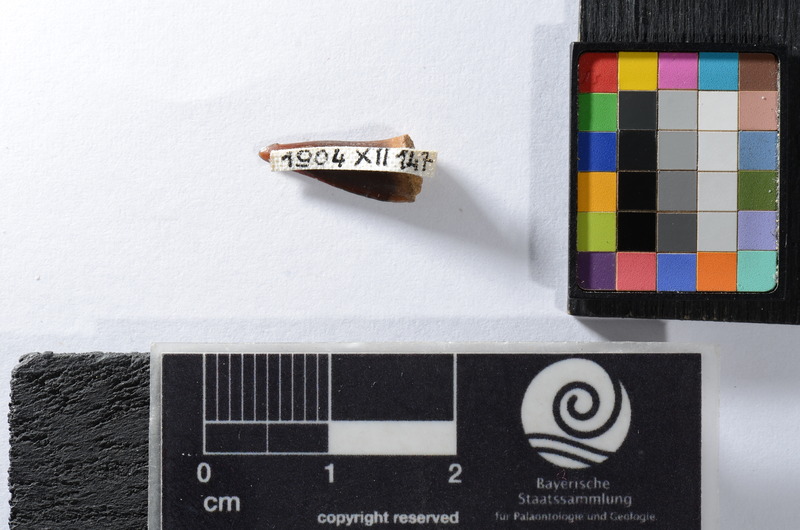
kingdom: Animalia
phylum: Chordata
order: Perciformes
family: Sphyraenidae
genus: Sphyraena
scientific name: Sphyraena Saurocephalus fajumensis
